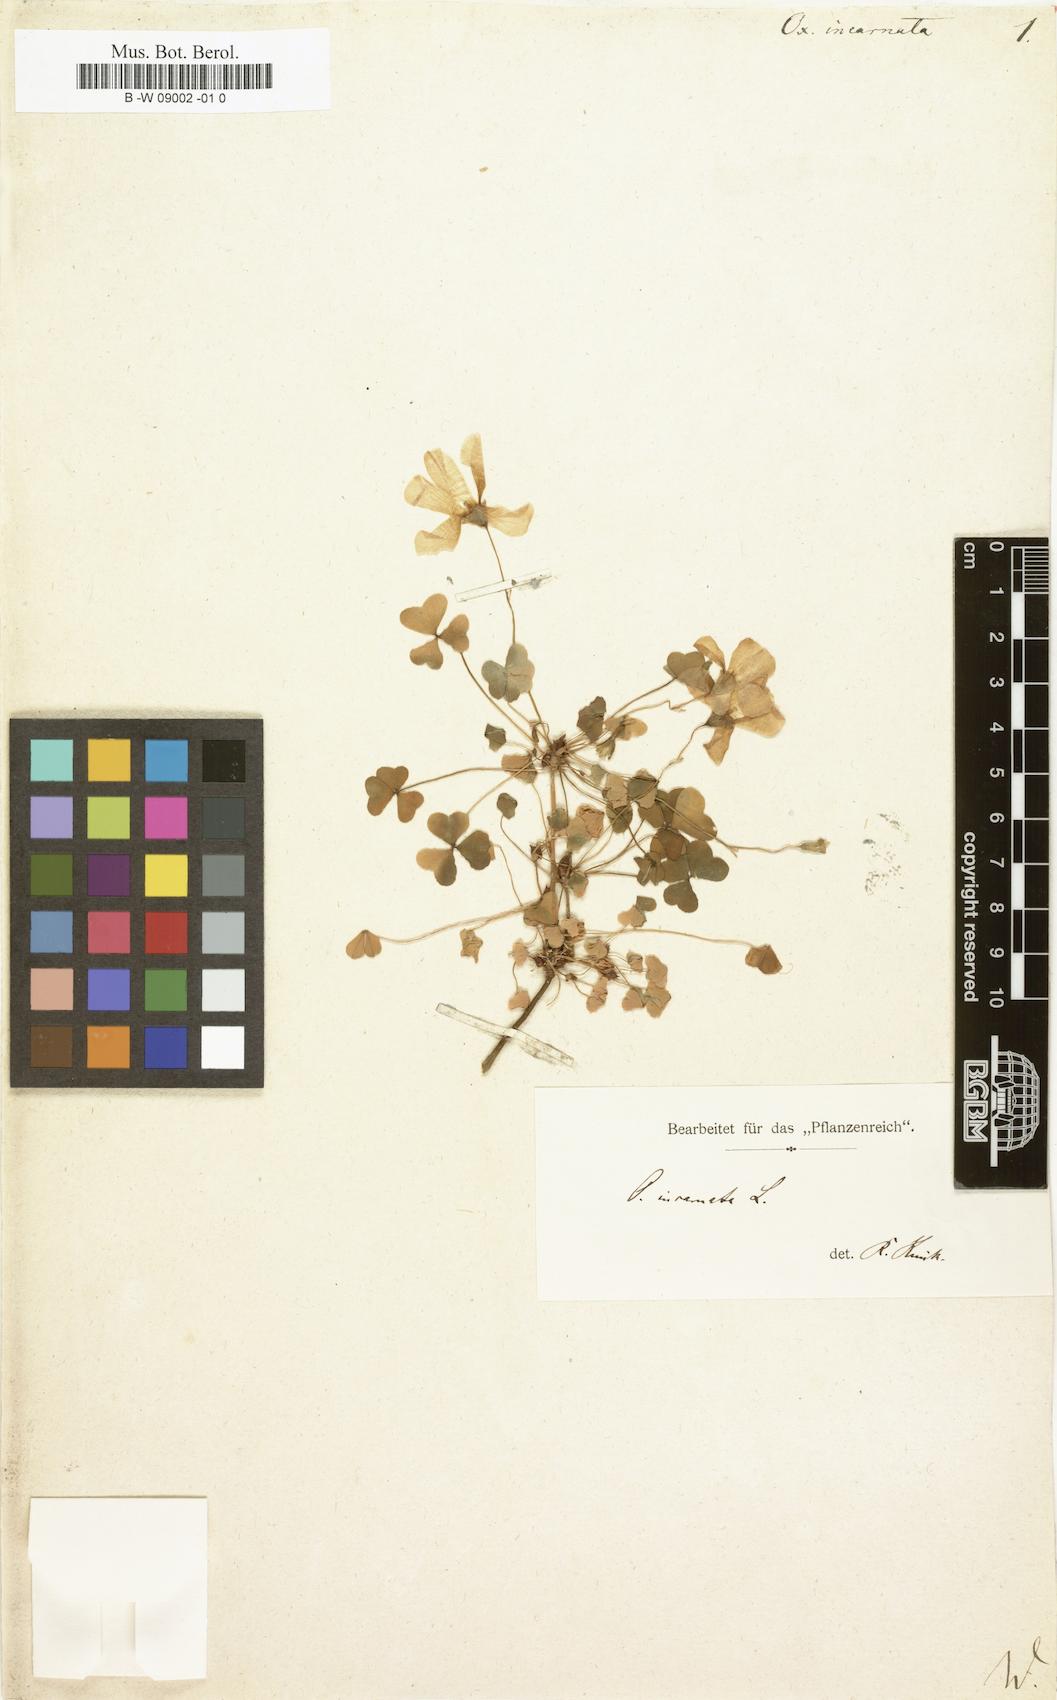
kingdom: Plantae
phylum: Tracheophyta
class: Magnoliopsida
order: Oxalidales
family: Oxalidaceae
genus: Oxalis
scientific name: Oxalis incarnata
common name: Pale pink-sorrel
